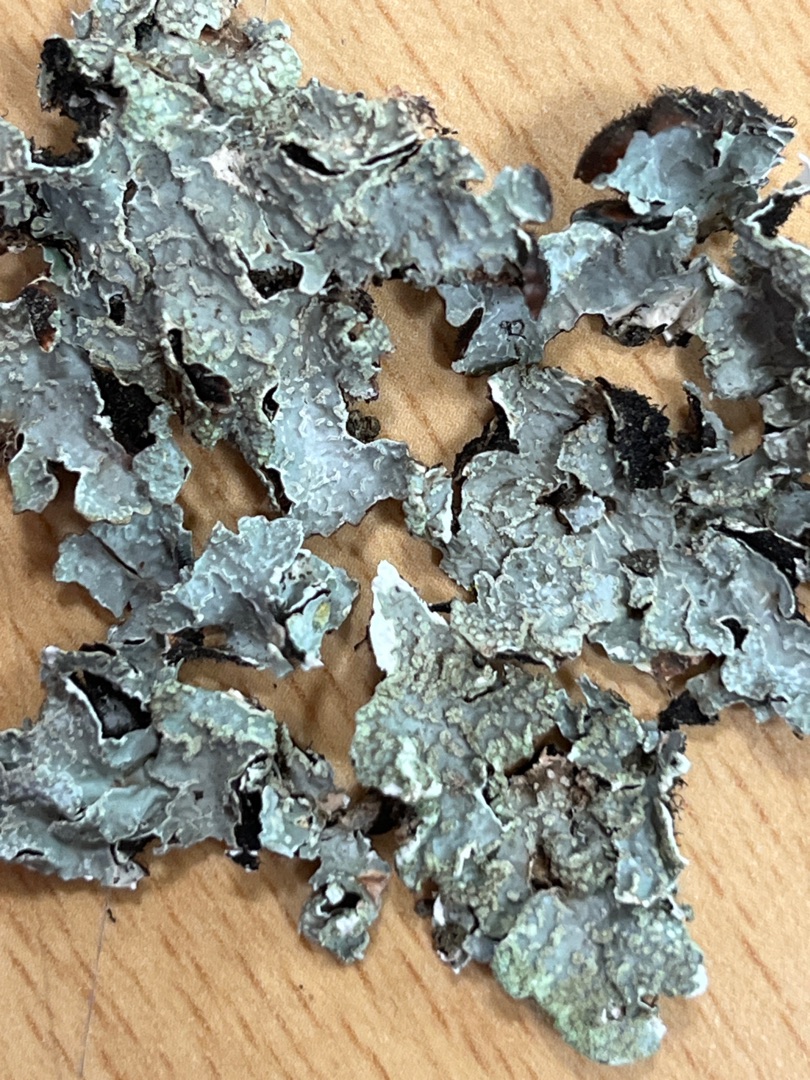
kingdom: Fungi
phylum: Ascomycota
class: Lecanoromycetes
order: Lecanorales
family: Parmeliaceae
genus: Parmelia
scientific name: Parmelia sulcata
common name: Rynket skållav
